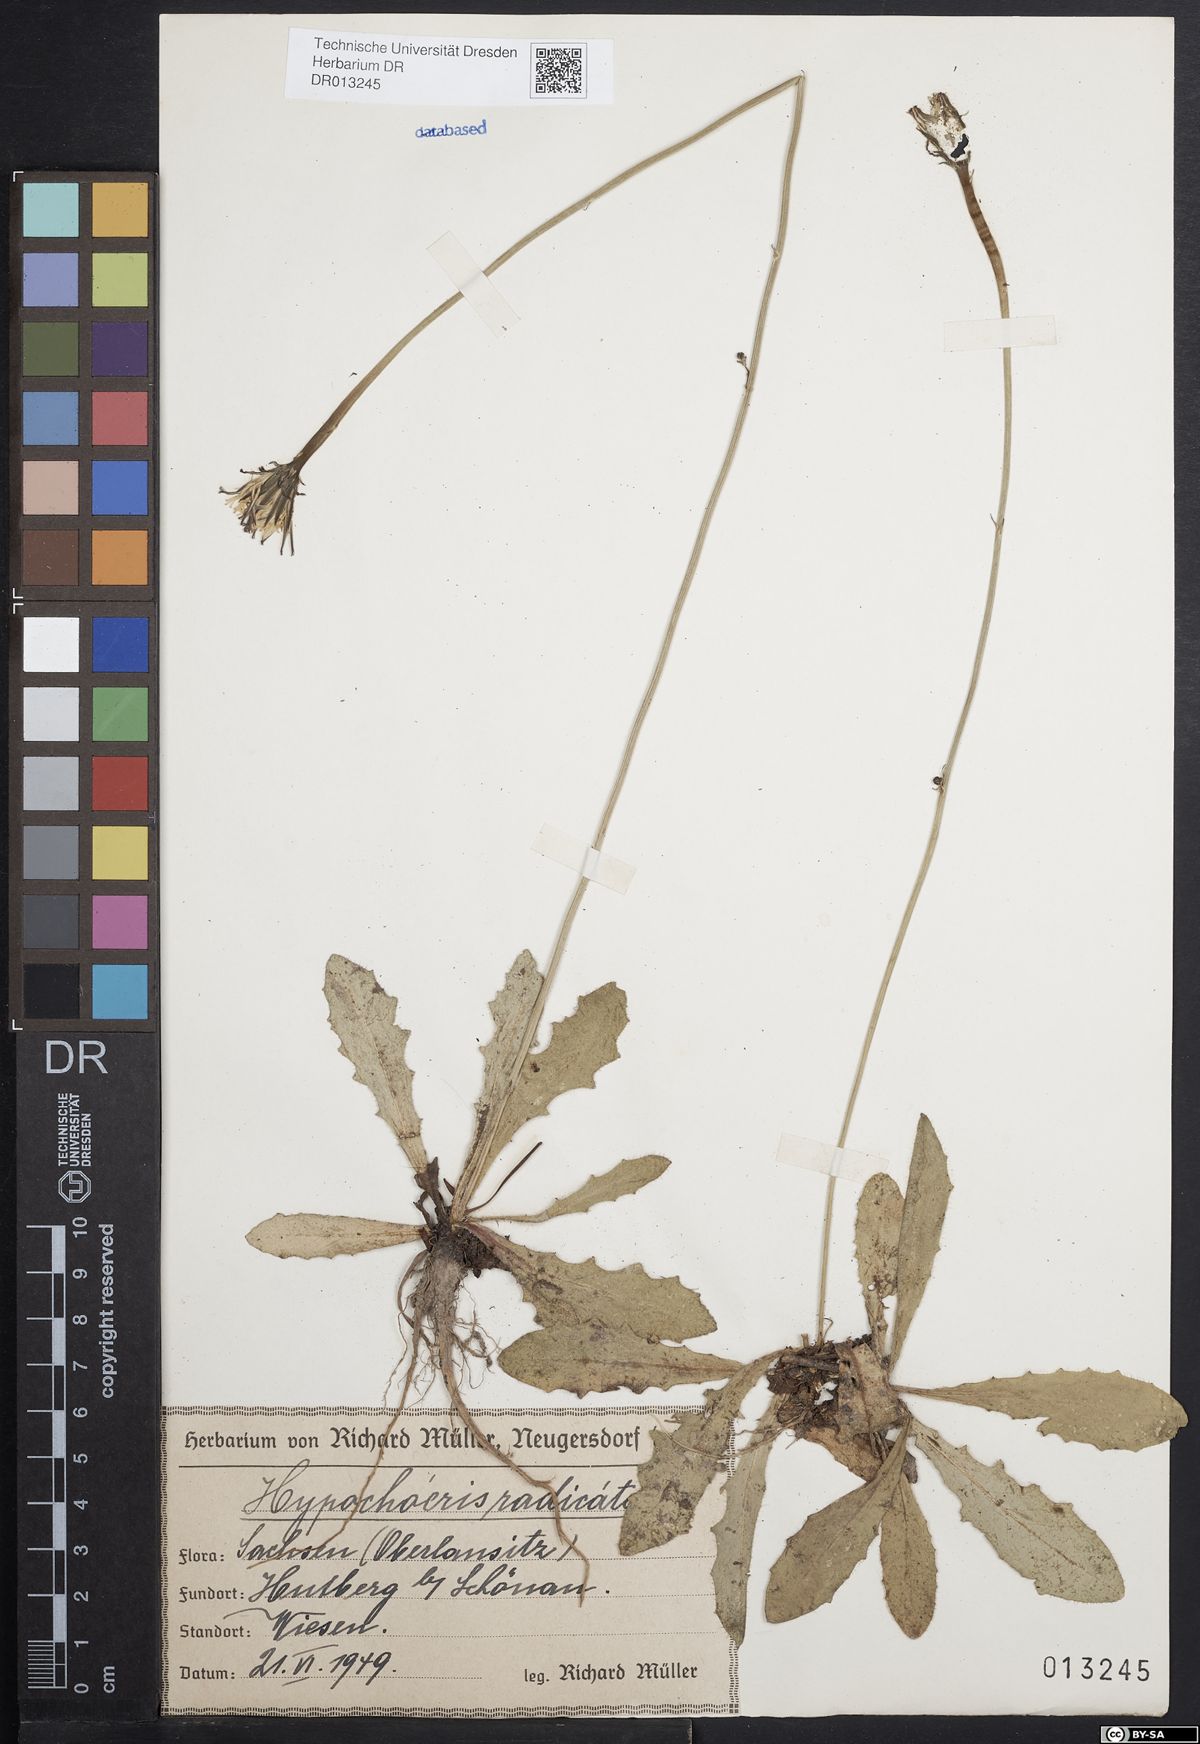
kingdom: Plantae
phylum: Tracheophyta
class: Magnoliopsida
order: Asterales
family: Asteraceae
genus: Hypochaeris
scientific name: Hypochaeris radicata
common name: Flatweed
